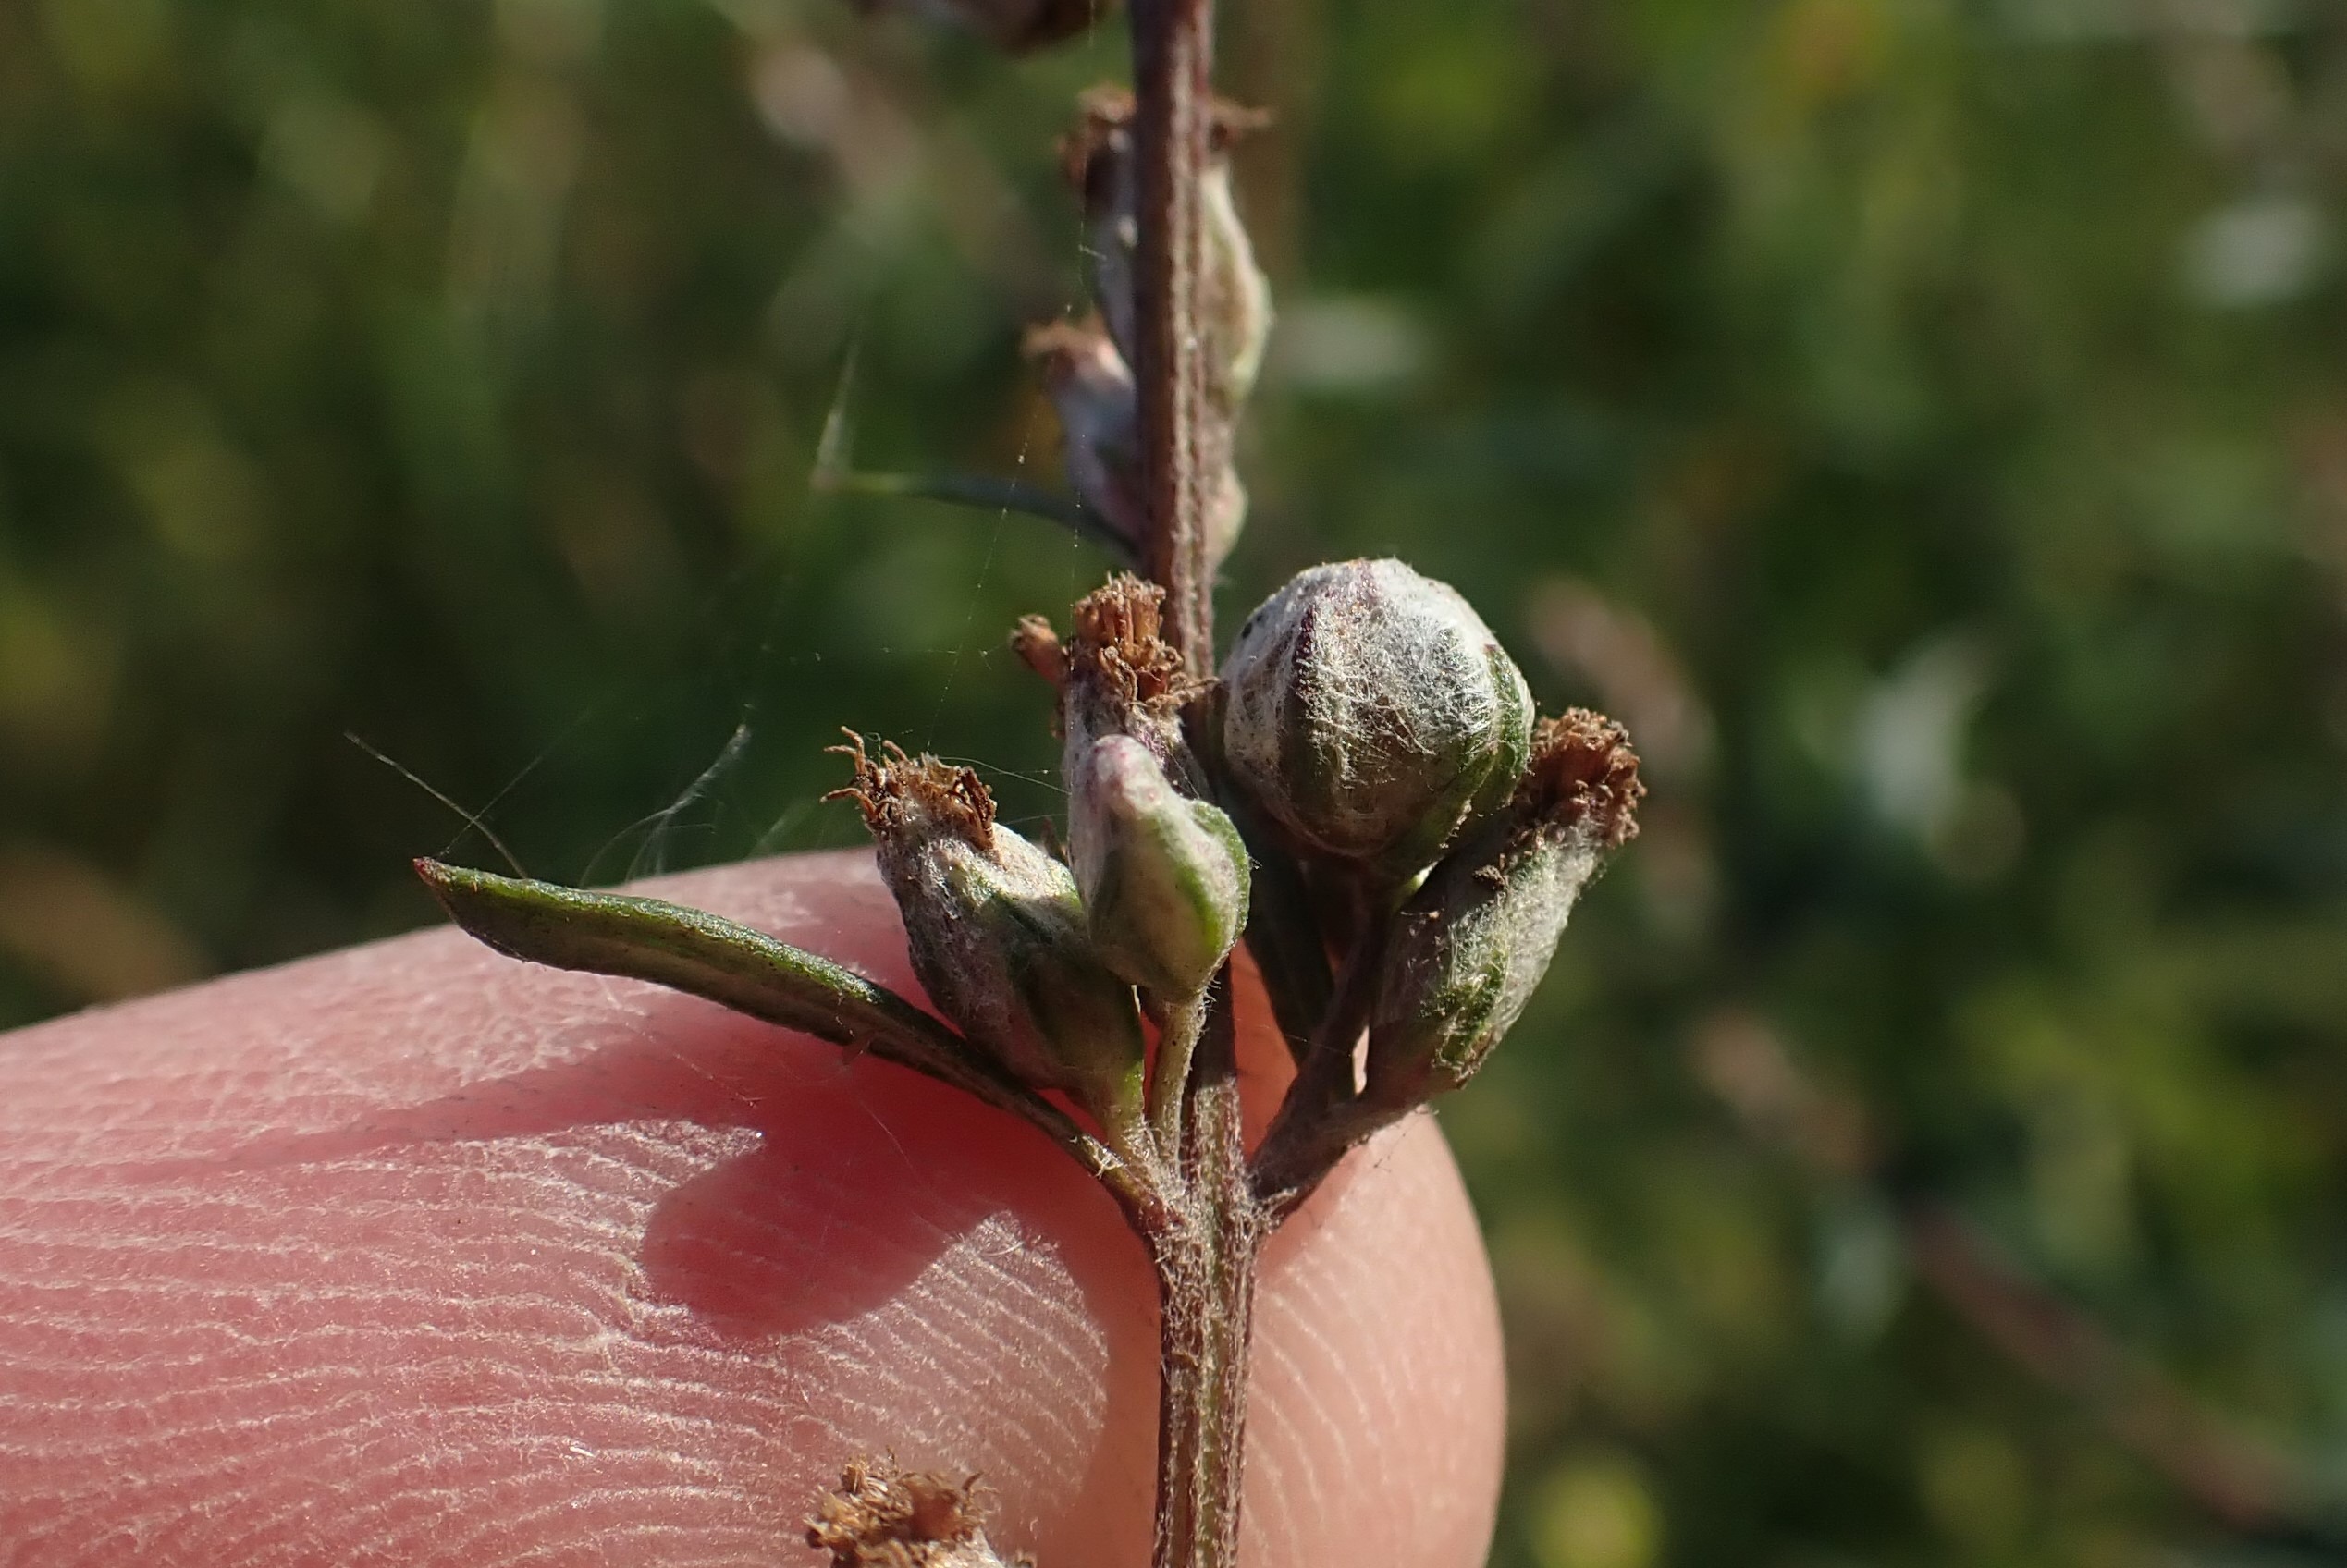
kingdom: Animalia
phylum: Arthropoda
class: Insecta
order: Diptera
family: Cecidomyiidae
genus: Ametrodiplosis
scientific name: Ametrodiplosis rudimentalis
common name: Bynkekurvgalmyg
